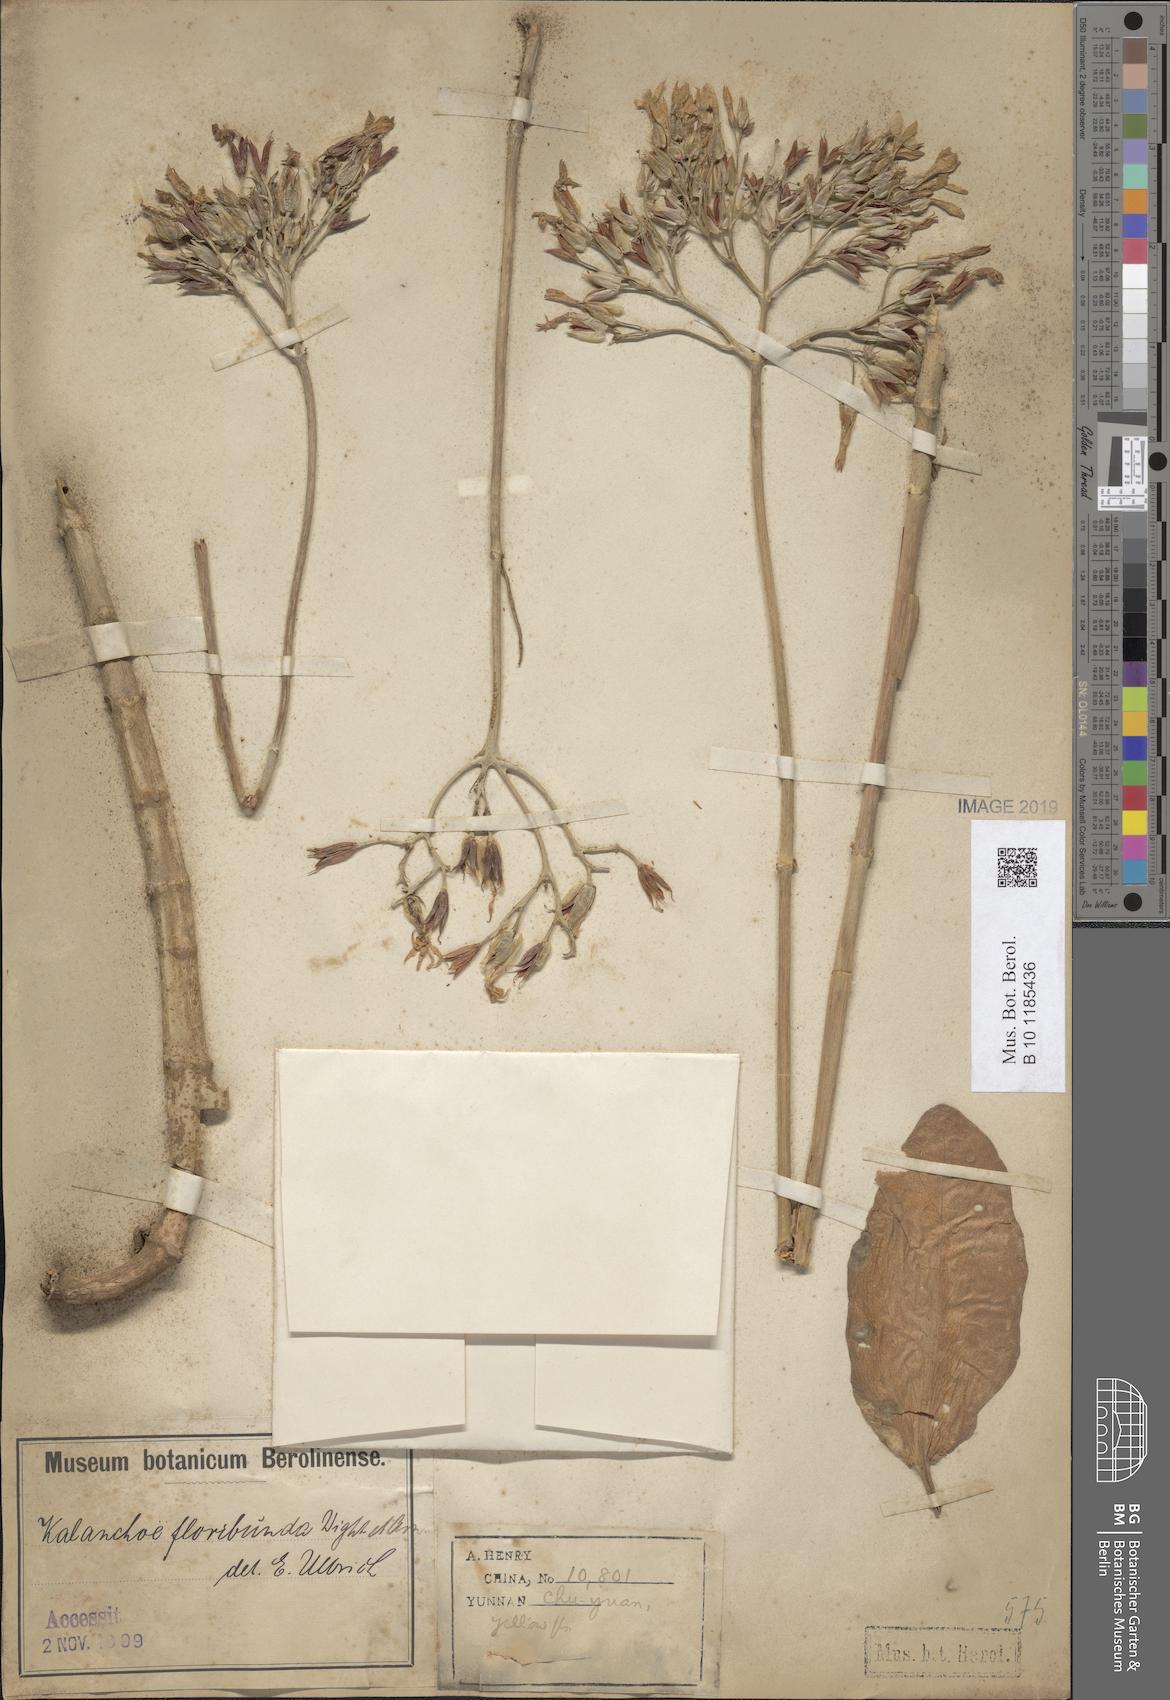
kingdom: Plantae
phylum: Tracheophyta
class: Magnoliopsida
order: Saxifragales
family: Crassulaceae
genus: Kalanchoe
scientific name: Kalanchoe floribunda
